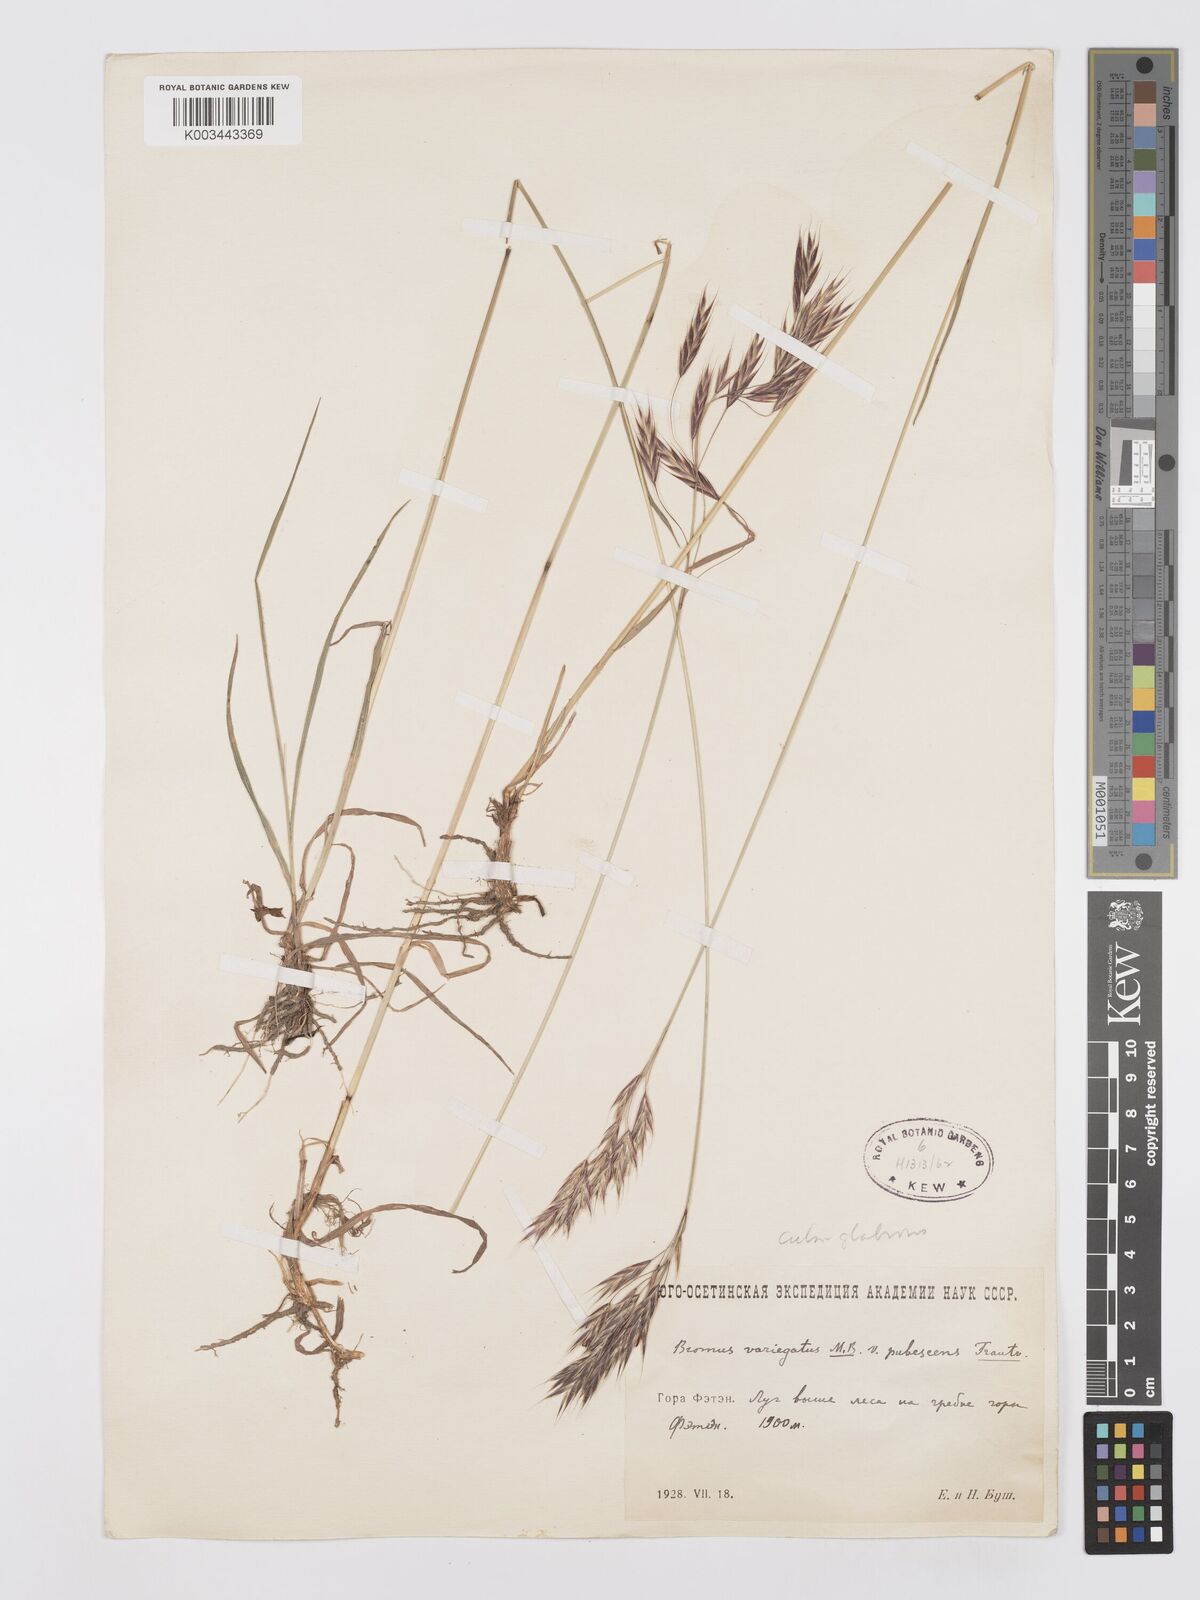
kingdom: Plantae
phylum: Tracheophyta
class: Liliopsida
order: Poales
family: Poaceae
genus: Bromus
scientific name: Bromus variegatus
